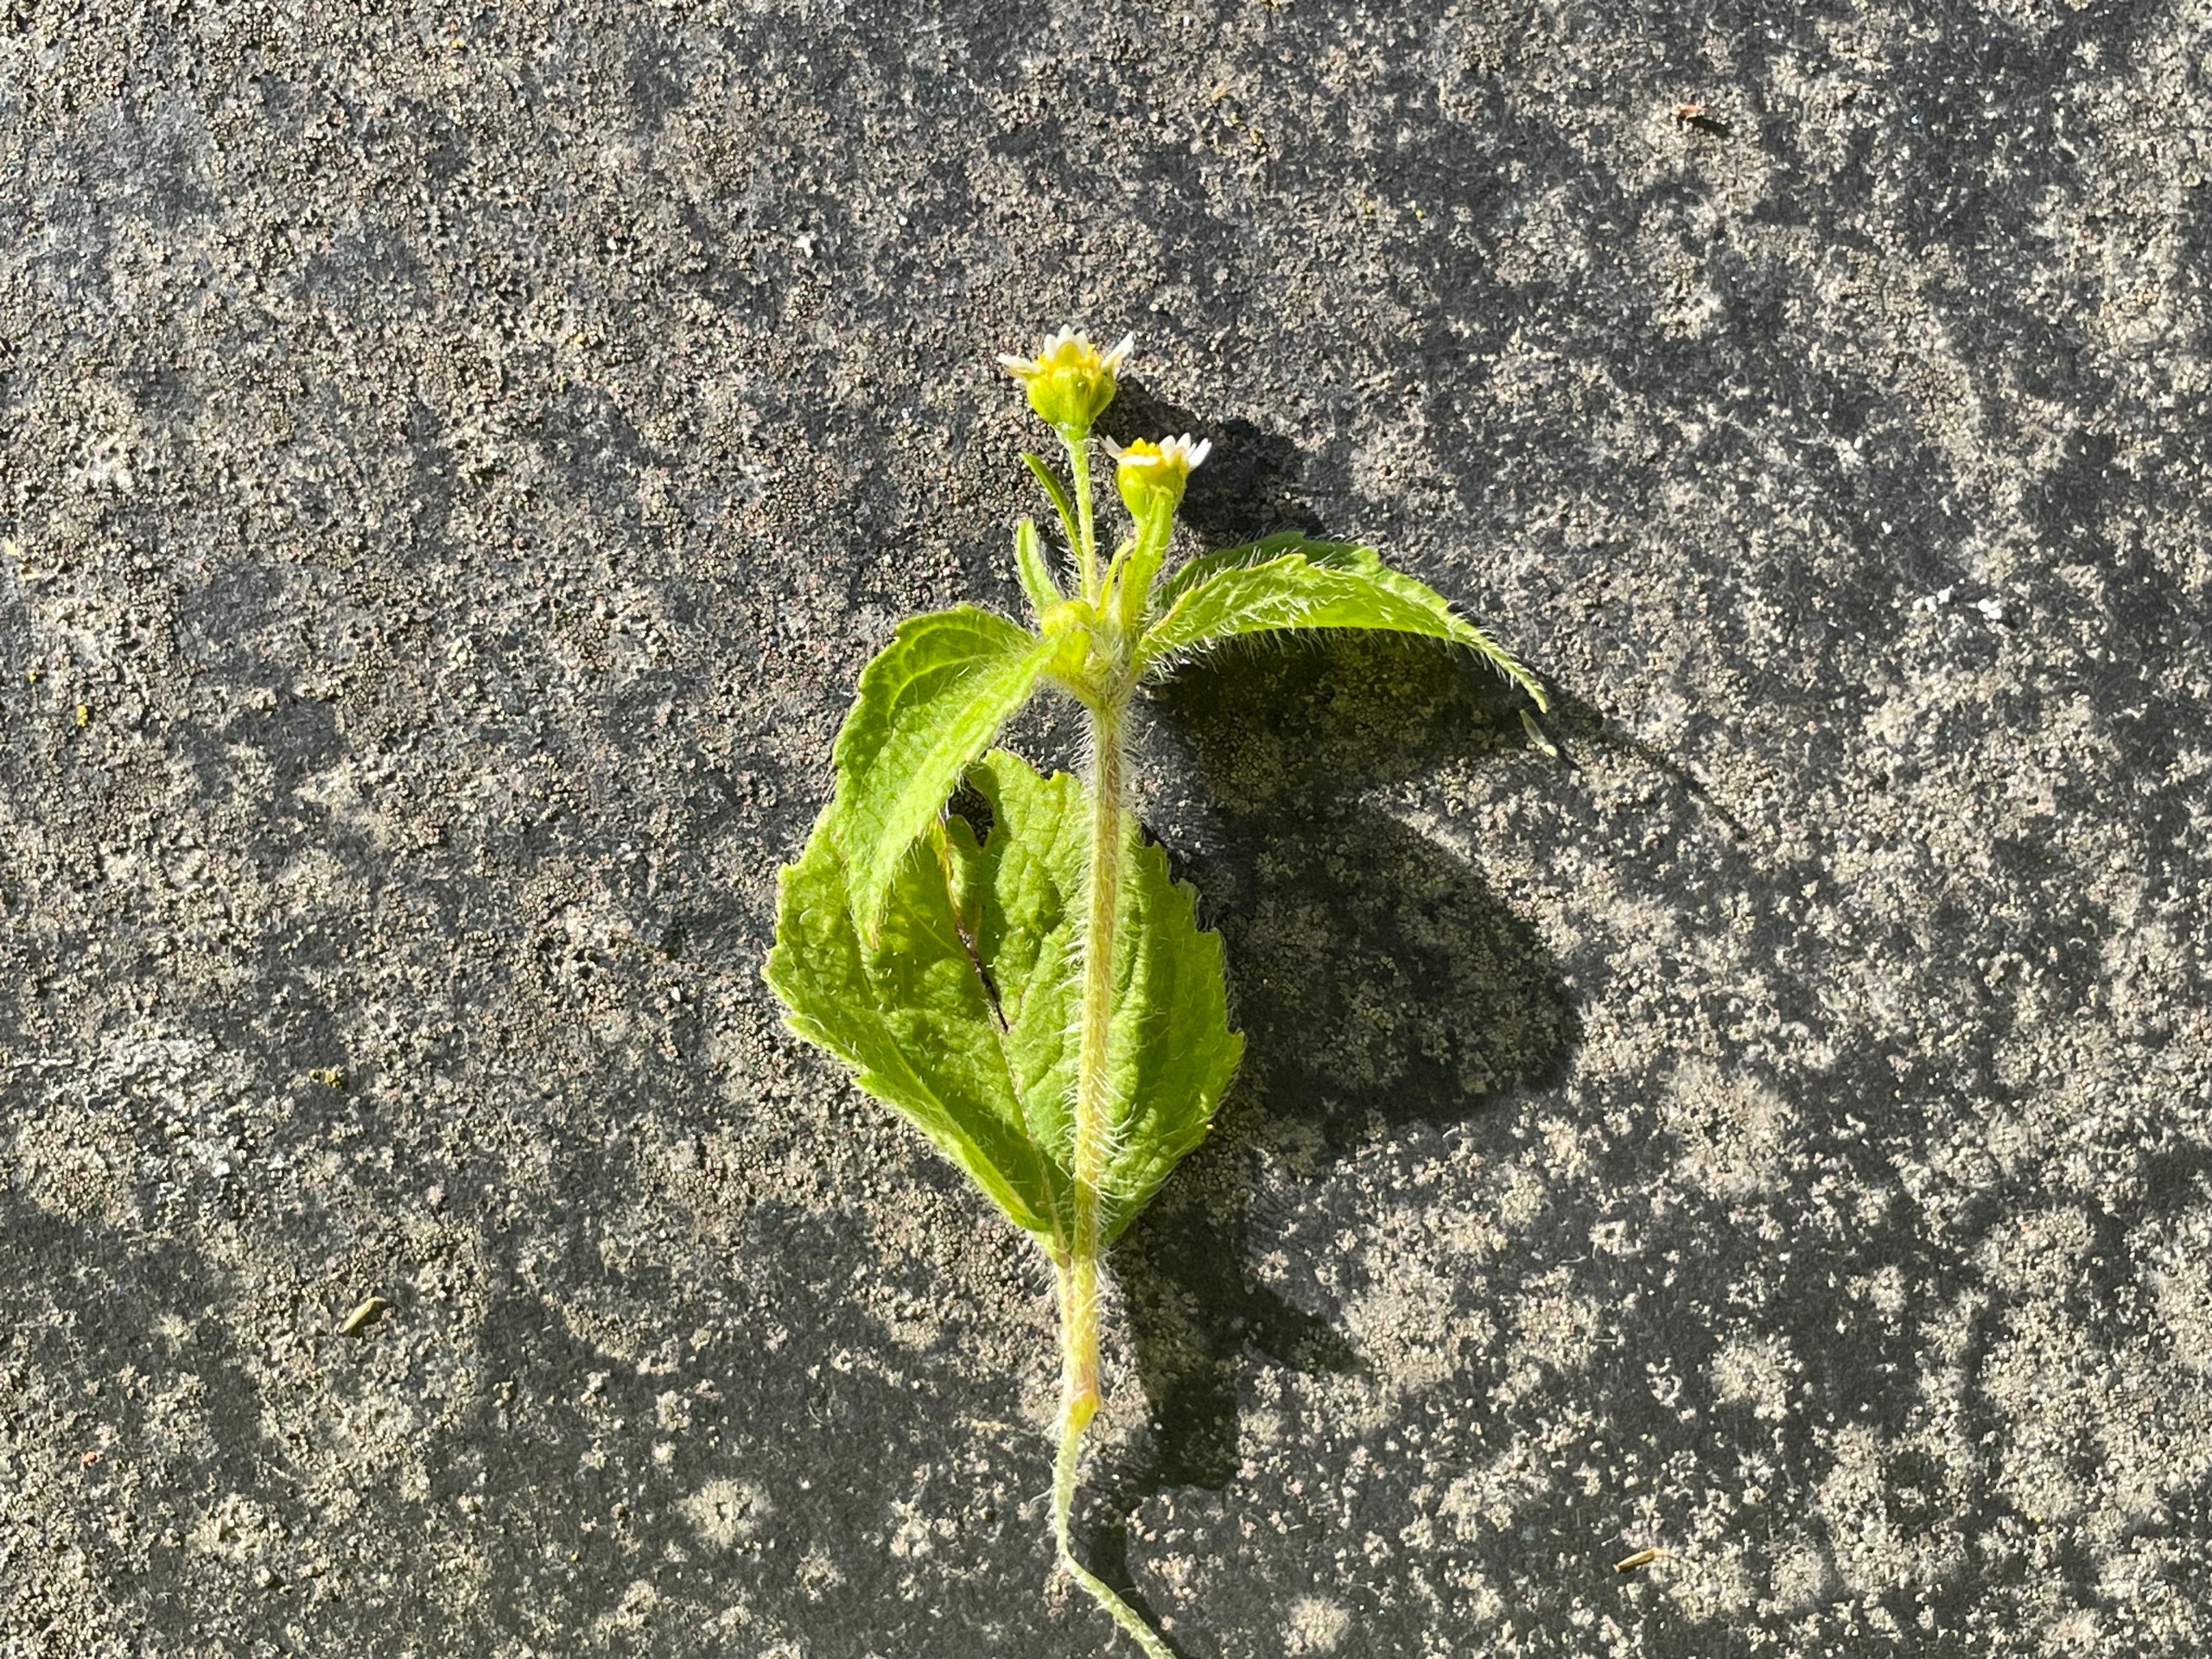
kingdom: Plantae
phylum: Tracheophyta
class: Magnoliopsida
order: Asterales
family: Asteraceae
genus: Galinsoga
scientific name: Galinsoga quadriradiata
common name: Kirtel-kortstråle
